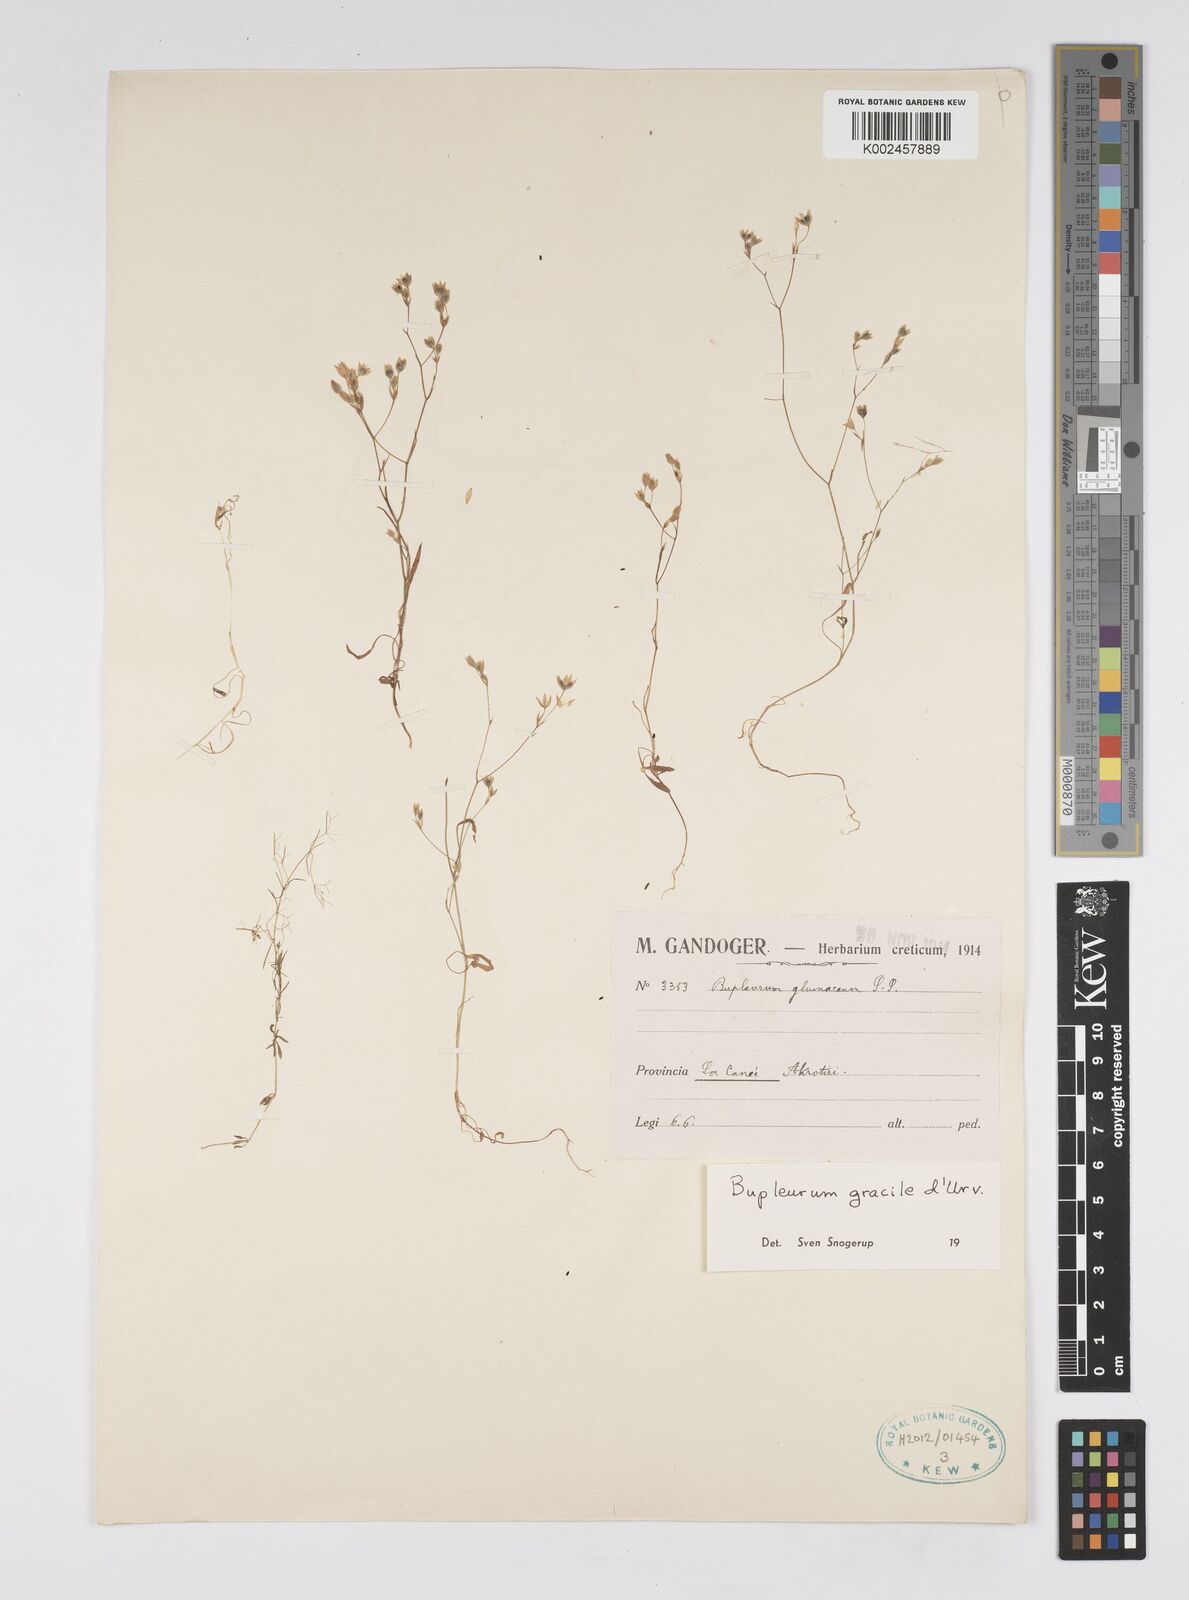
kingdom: Plantae
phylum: Tracheophyta
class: Magnoliopsida
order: Apiales
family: Apiaceae
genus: Bupleurum
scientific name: Bupleurum gracile
